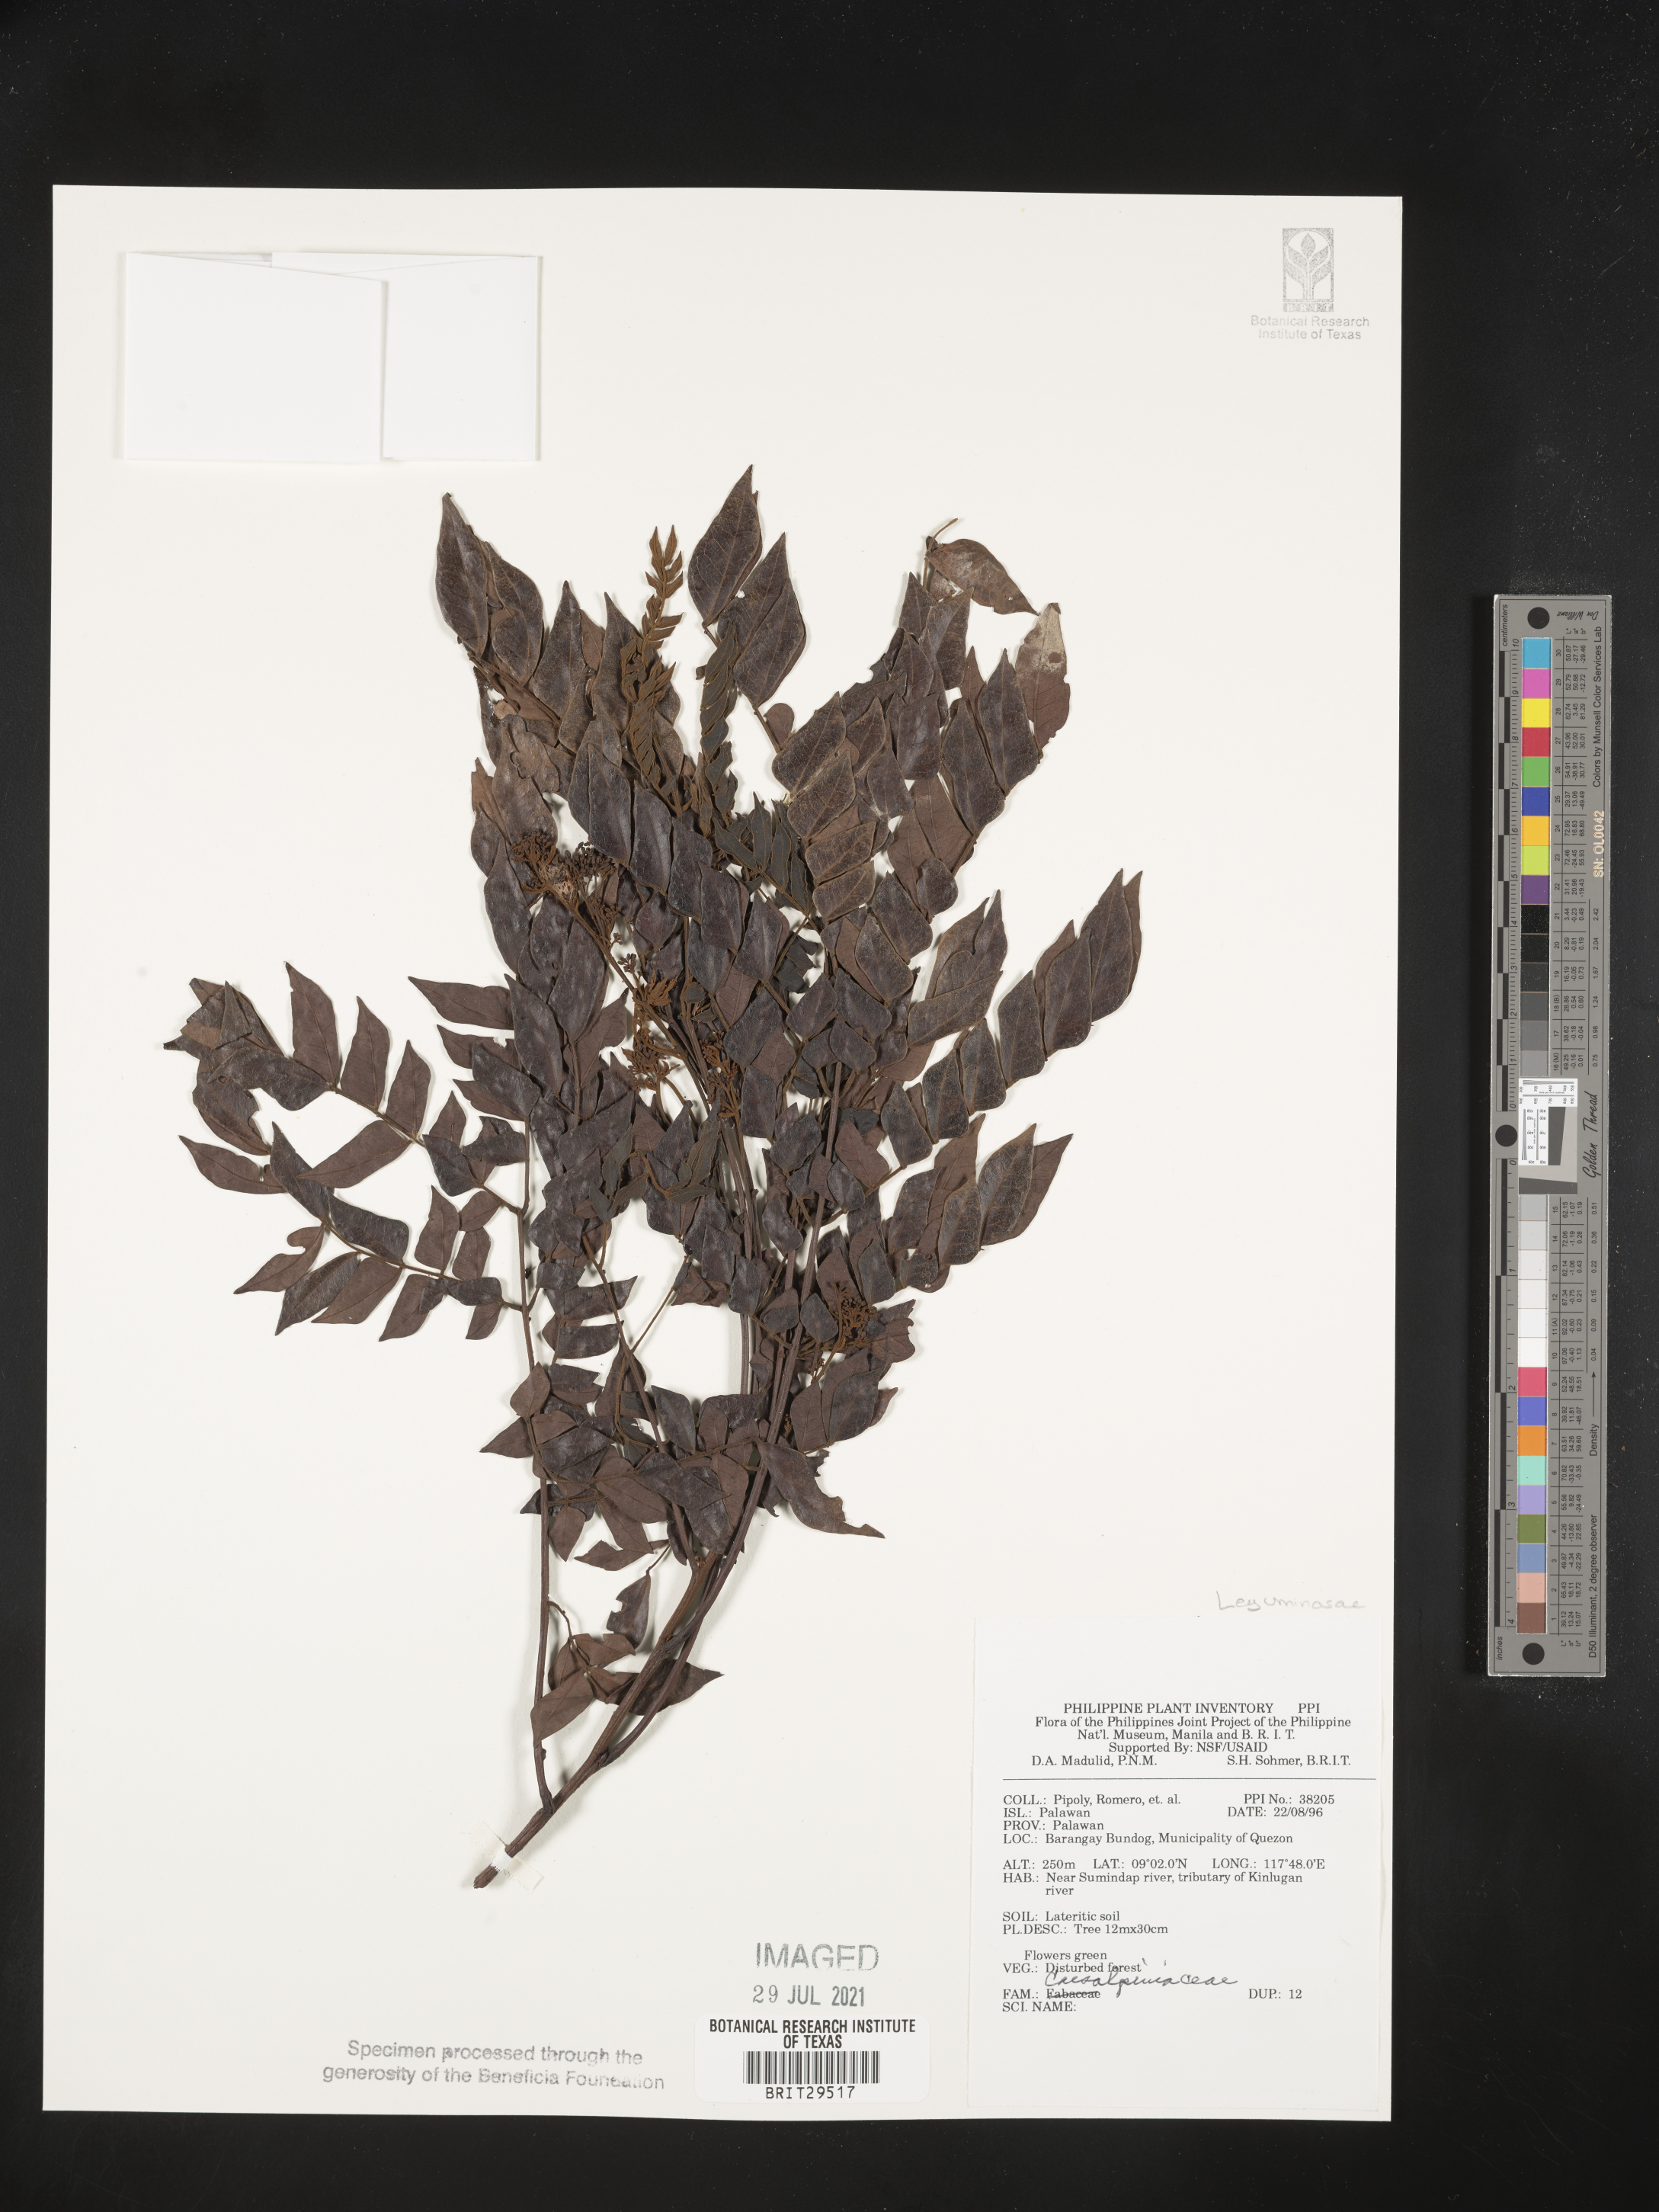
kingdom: Plantae
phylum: Tracheophyta
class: Magnoliopsida
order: Fabales
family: Fabaceae
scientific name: Fabaceae
